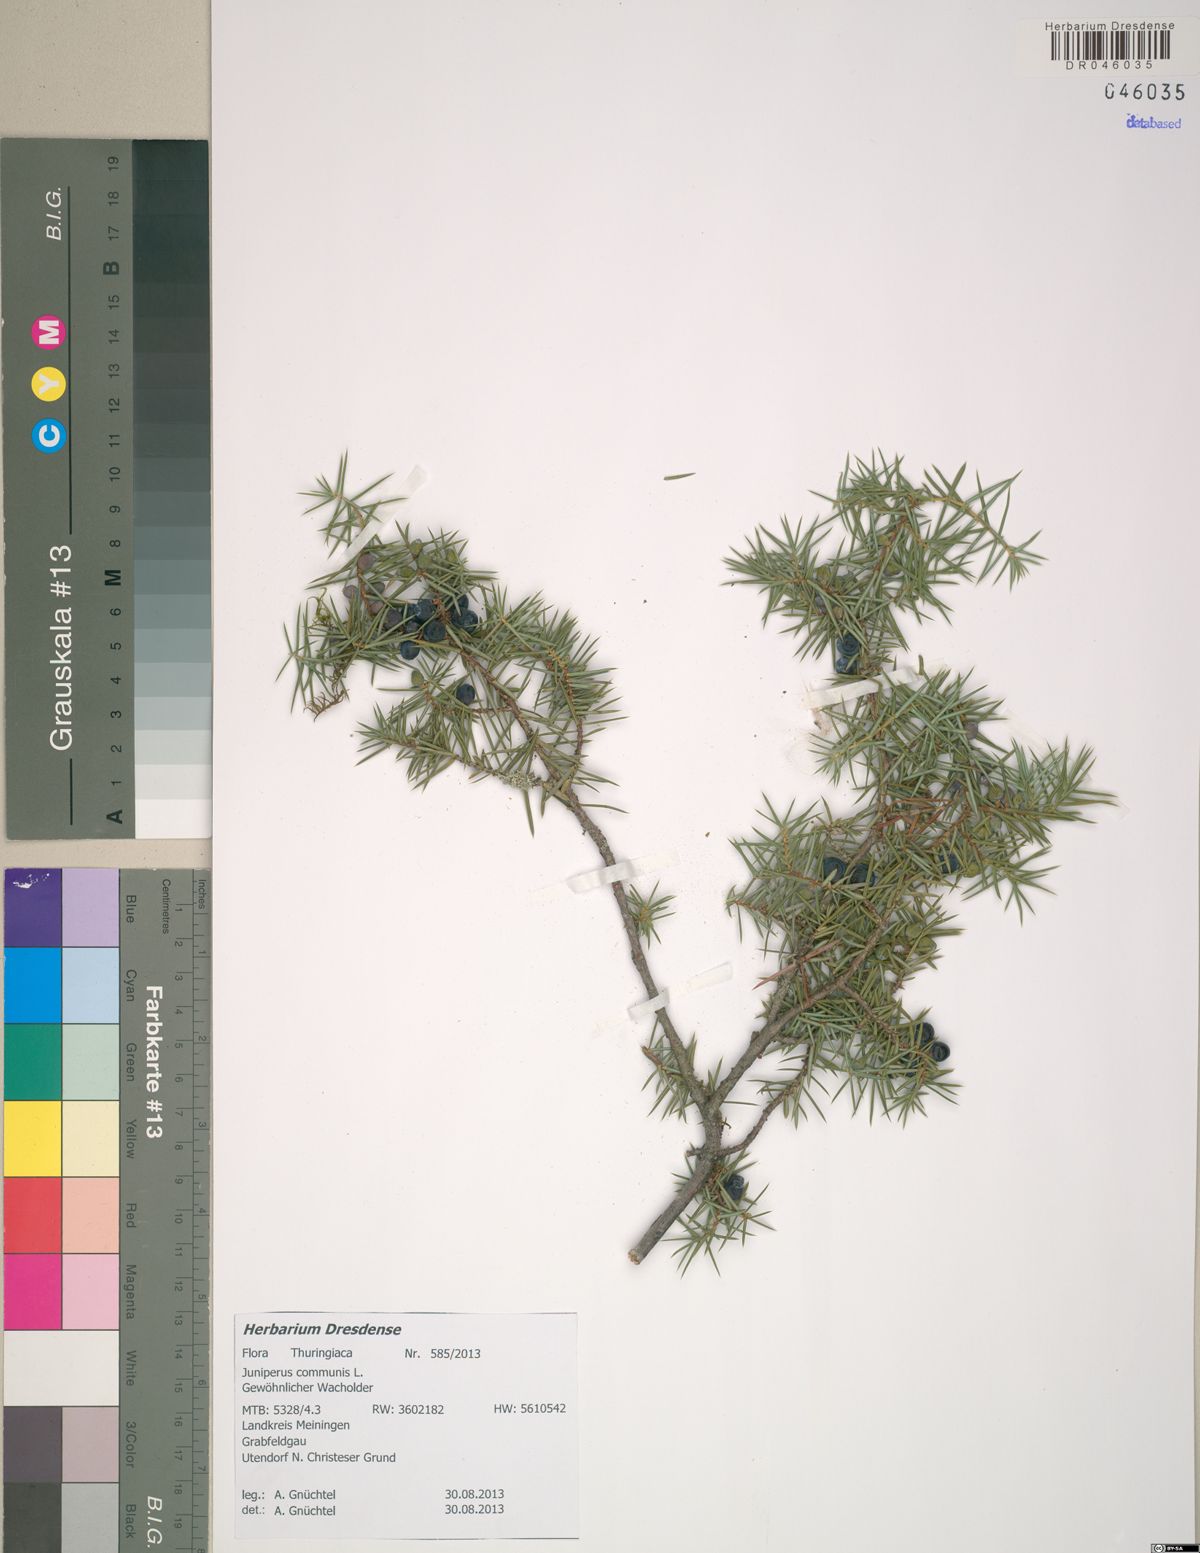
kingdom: Plantae
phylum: Tracheophyta
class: Pinopsida
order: Pinales
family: Cupressaceae
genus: Juniperus
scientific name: Juniperus communis
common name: Common juniper
